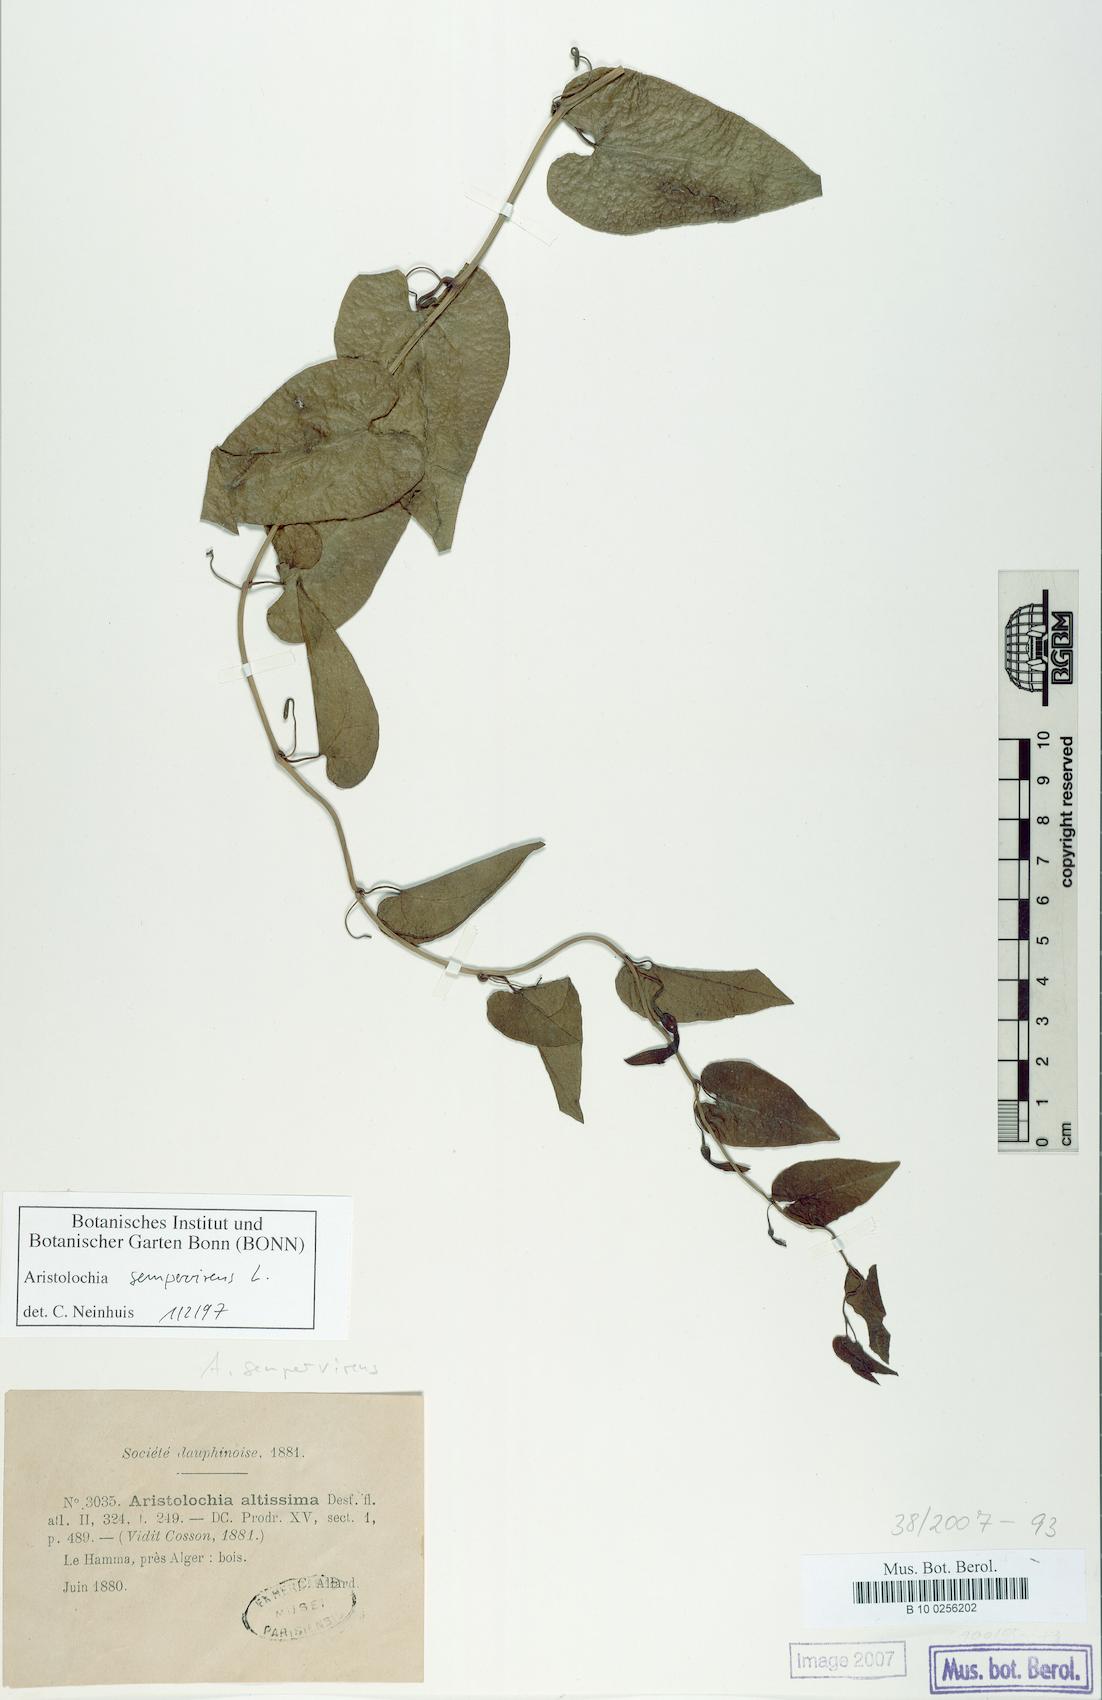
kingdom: Plantae
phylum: Tracheophyta
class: Magnoliopsida
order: Piperales
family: Aristolochiaceae
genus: Aristolochia
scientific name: Aristolochia sempervirens
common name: Long birthwort
